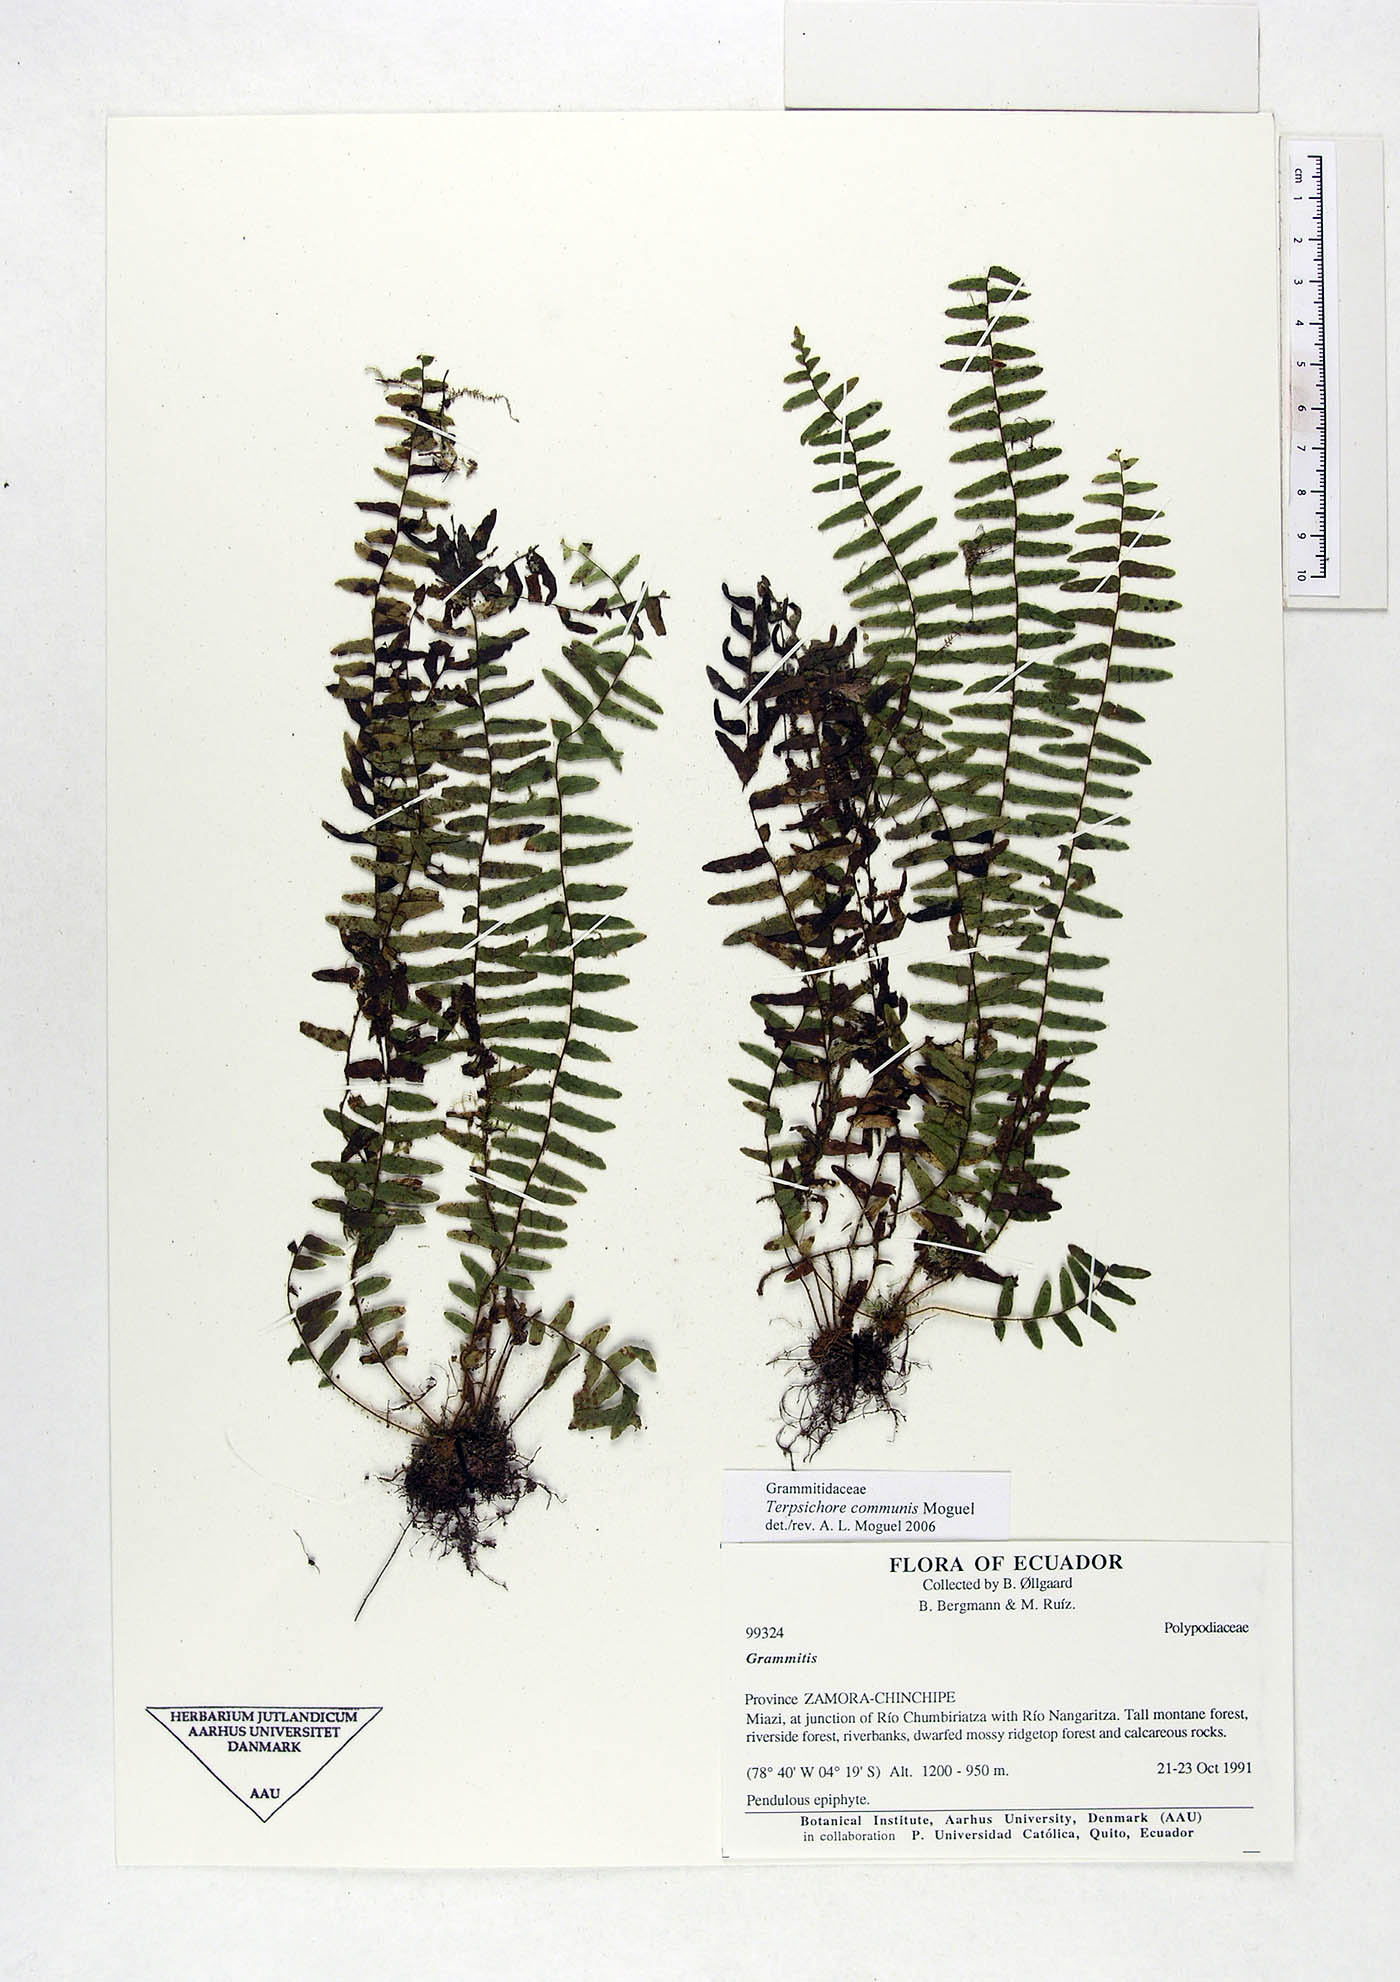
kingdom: Plantae
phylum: Tracheophyta
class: Polypodiopsida
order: Polypodiales
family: Polypodiaceae
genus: Terpsichore
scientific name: Terpsichore communis
